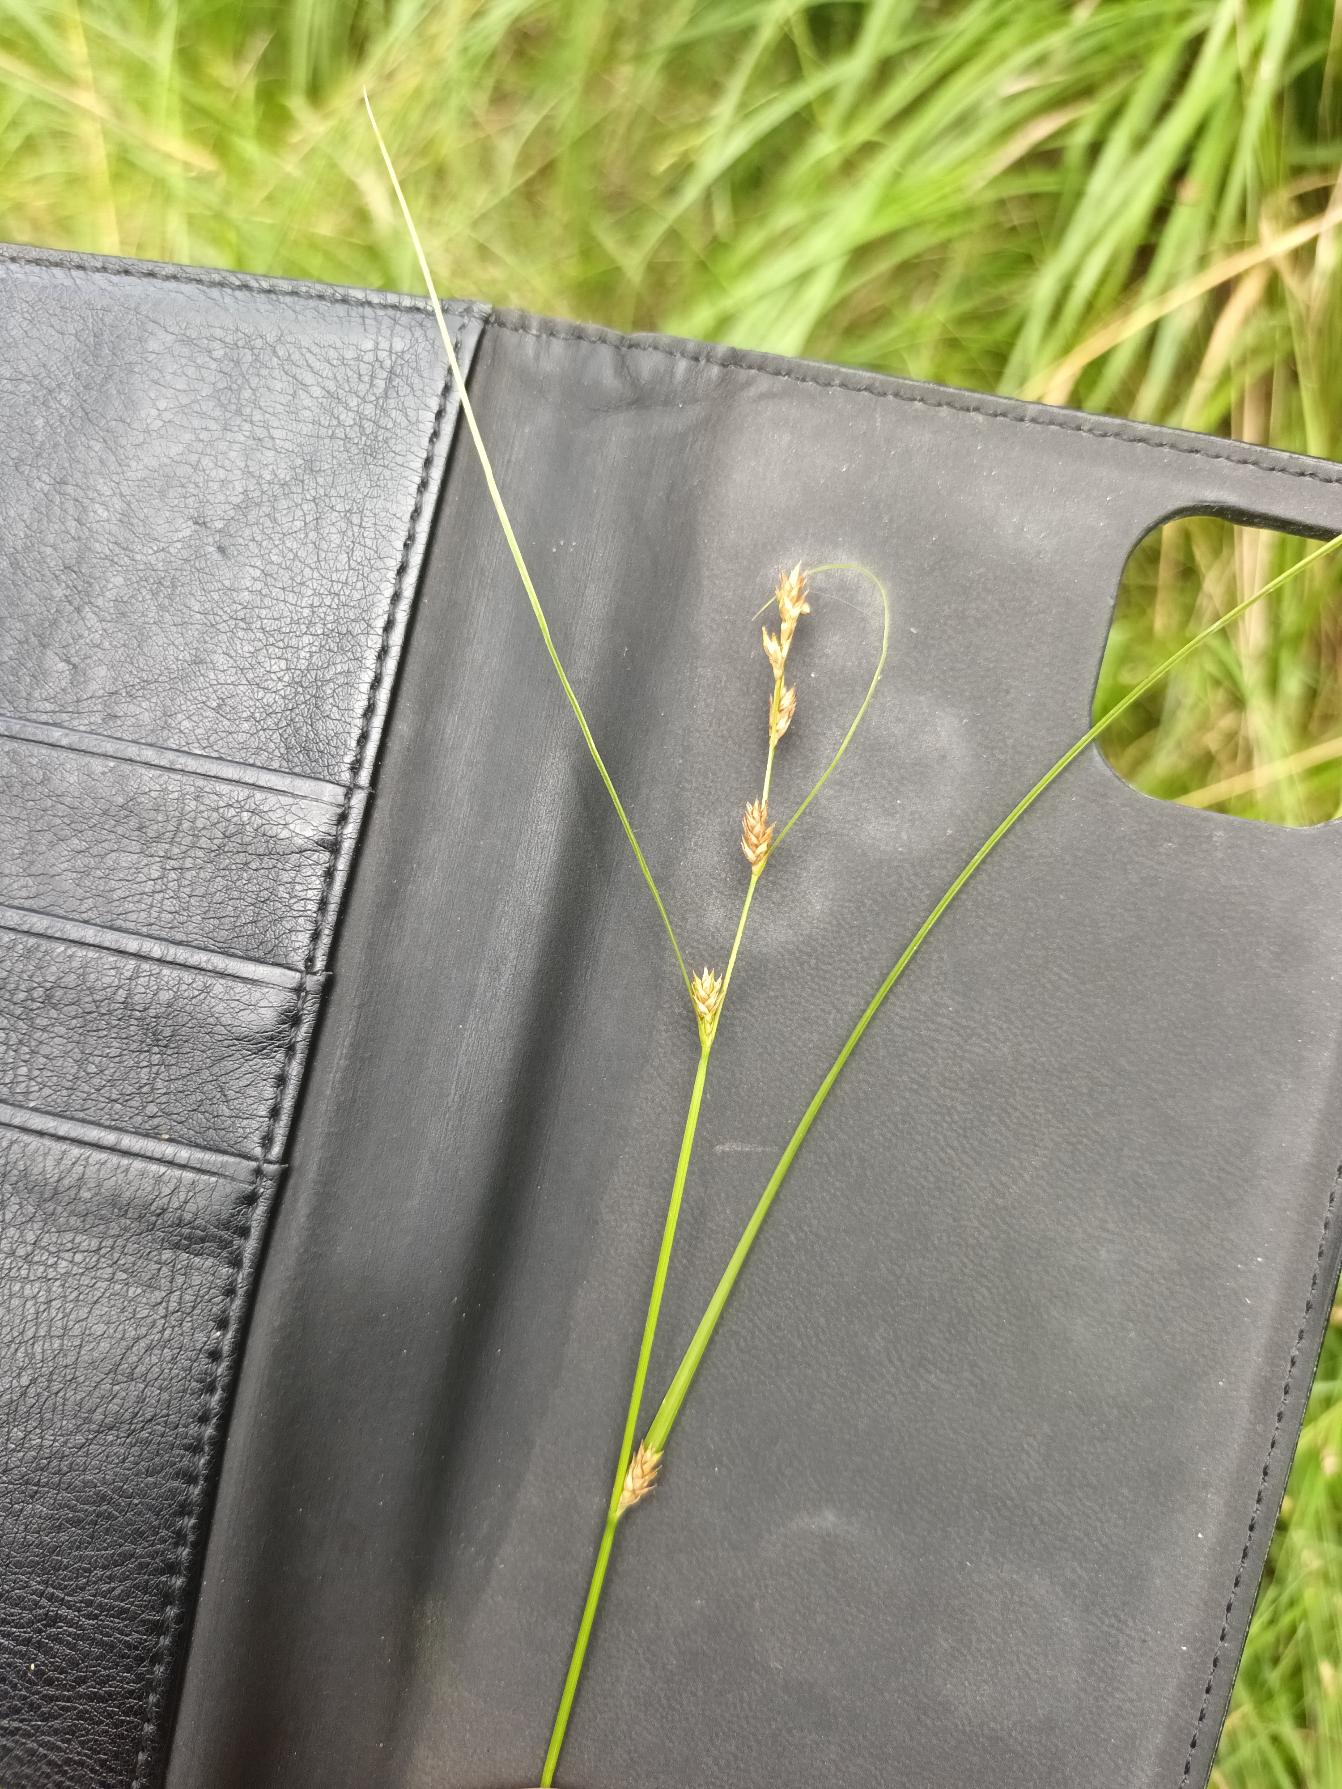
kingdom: Plantae
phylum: Tracheophyta
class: Liliopsida
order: Poales
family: Cyperaceae
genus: Carex
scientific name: Carex remota
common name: Akselblomstret star
